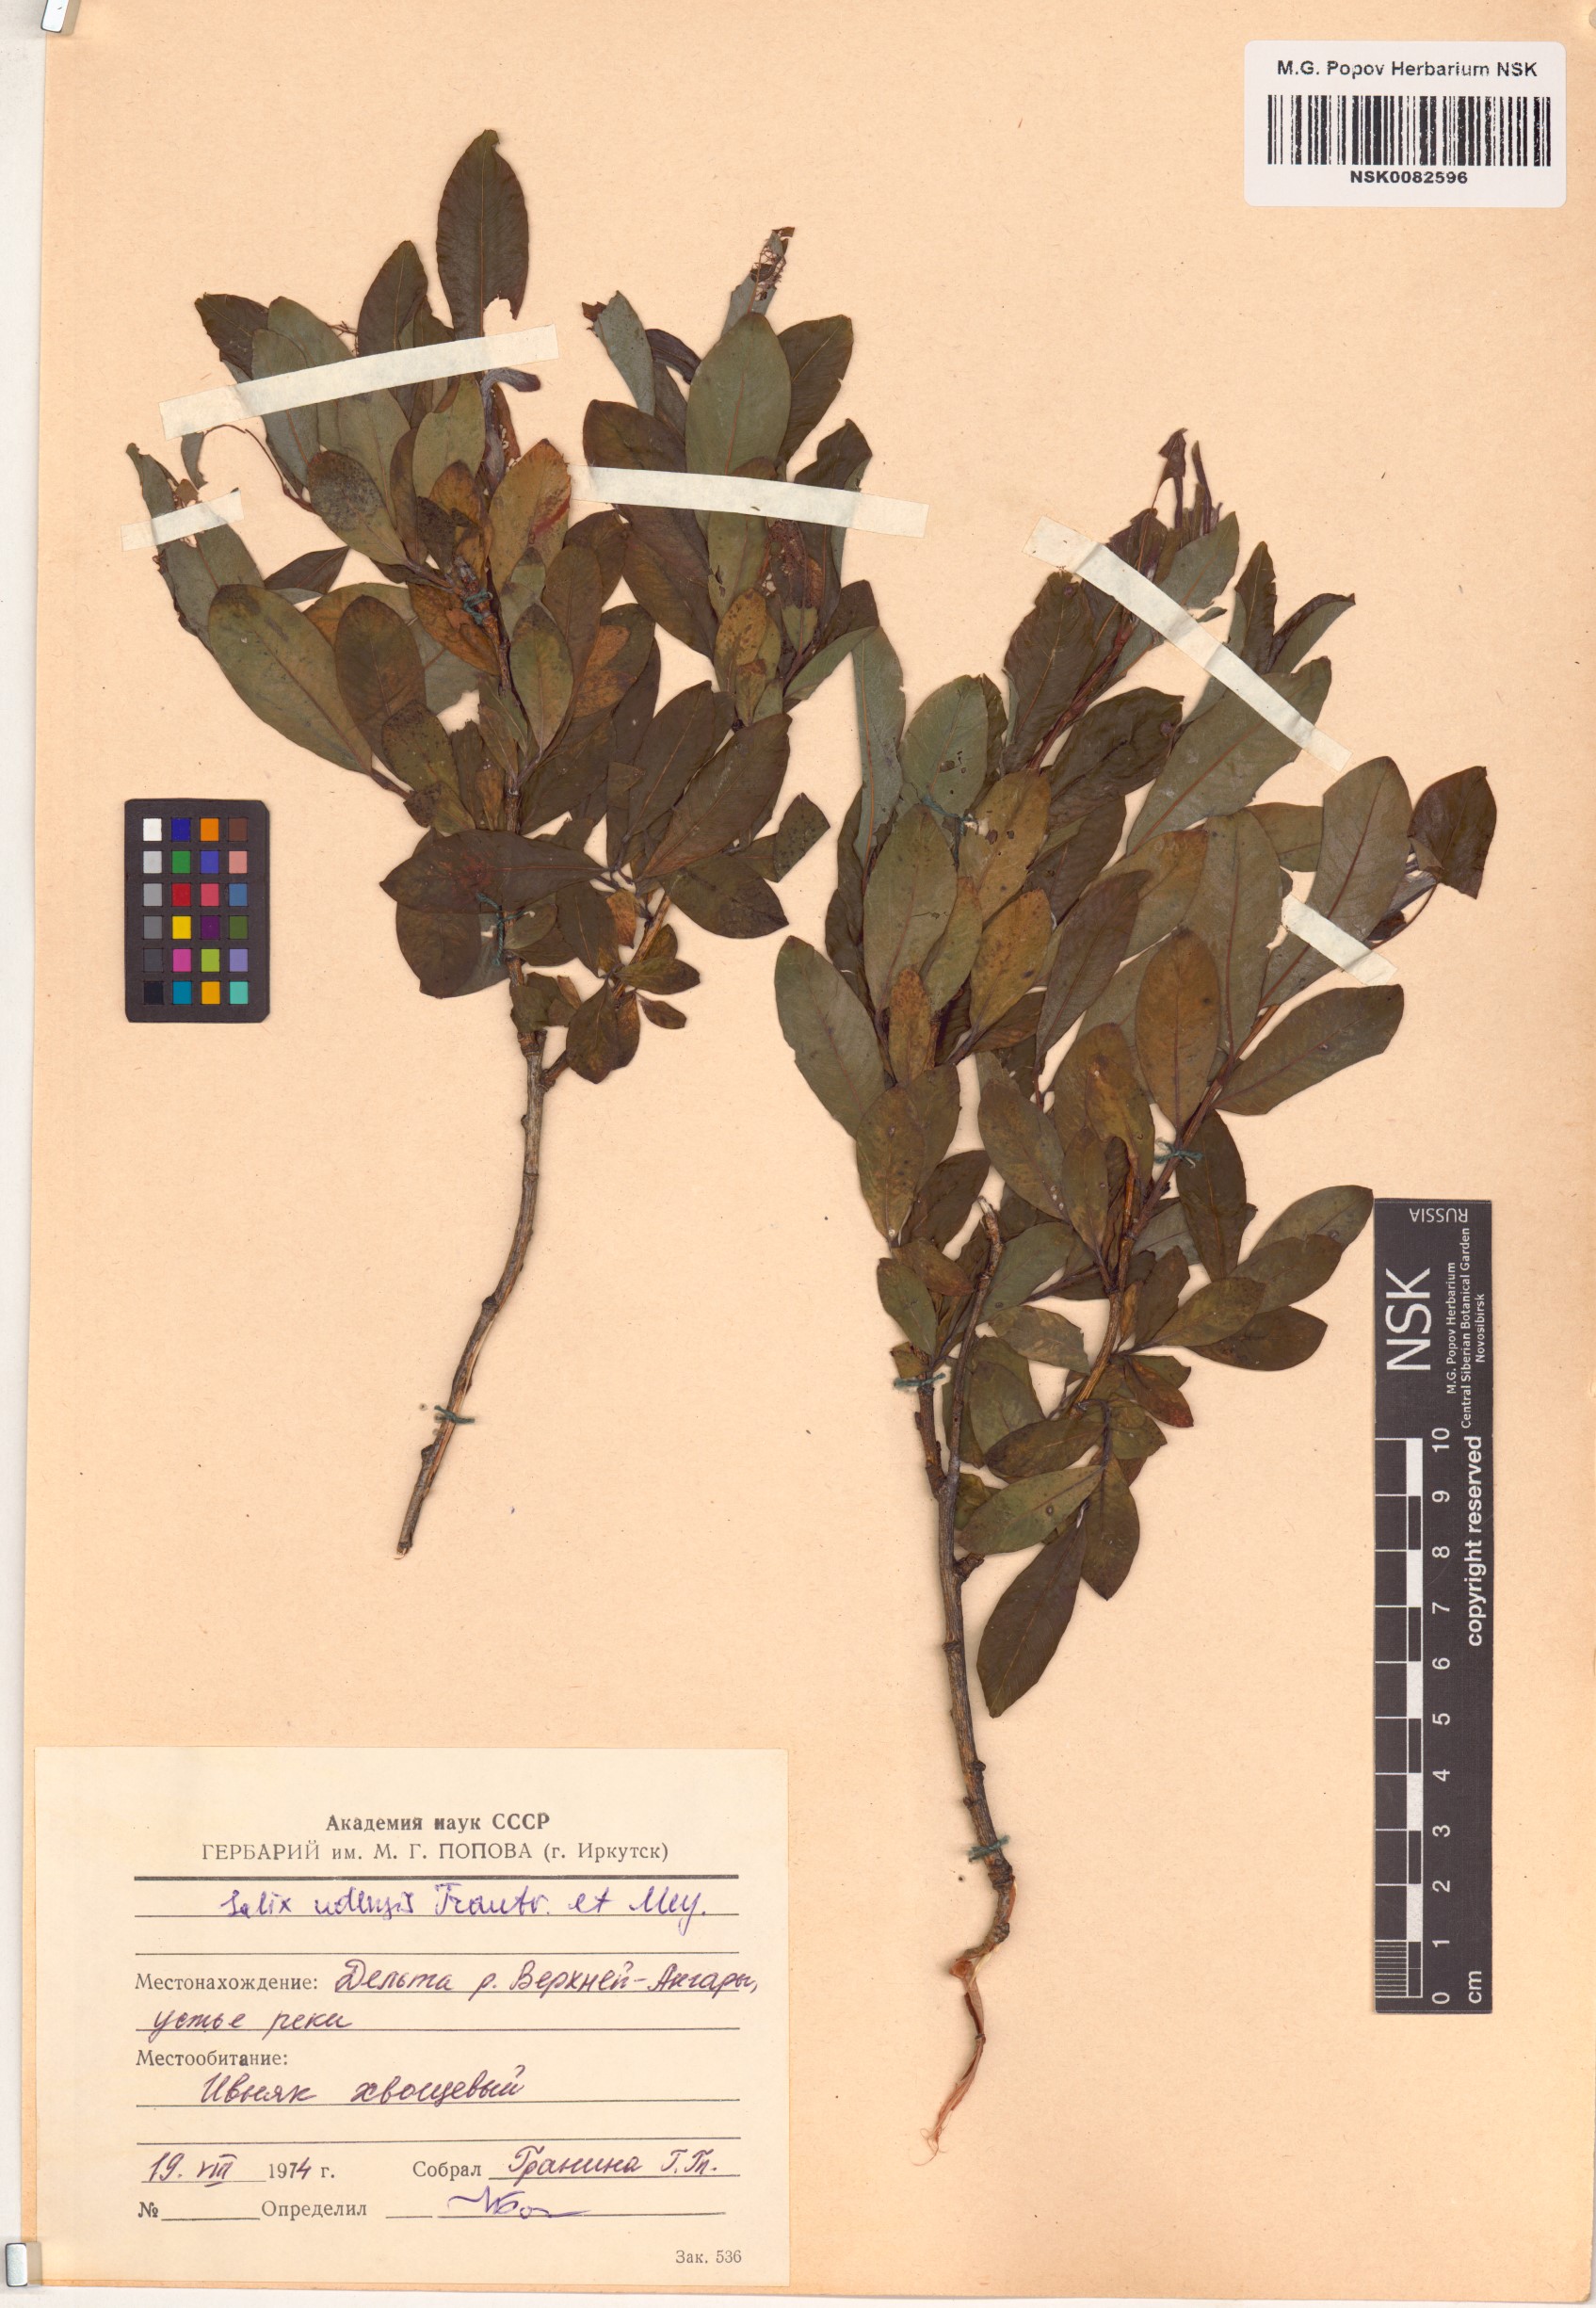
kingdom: Plantae
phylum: Tracheophyta
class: Magnoliopsida
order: Malpighiales
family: Salicaceae
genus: Salix
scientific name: Salix udensis
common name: Sachalin willow
